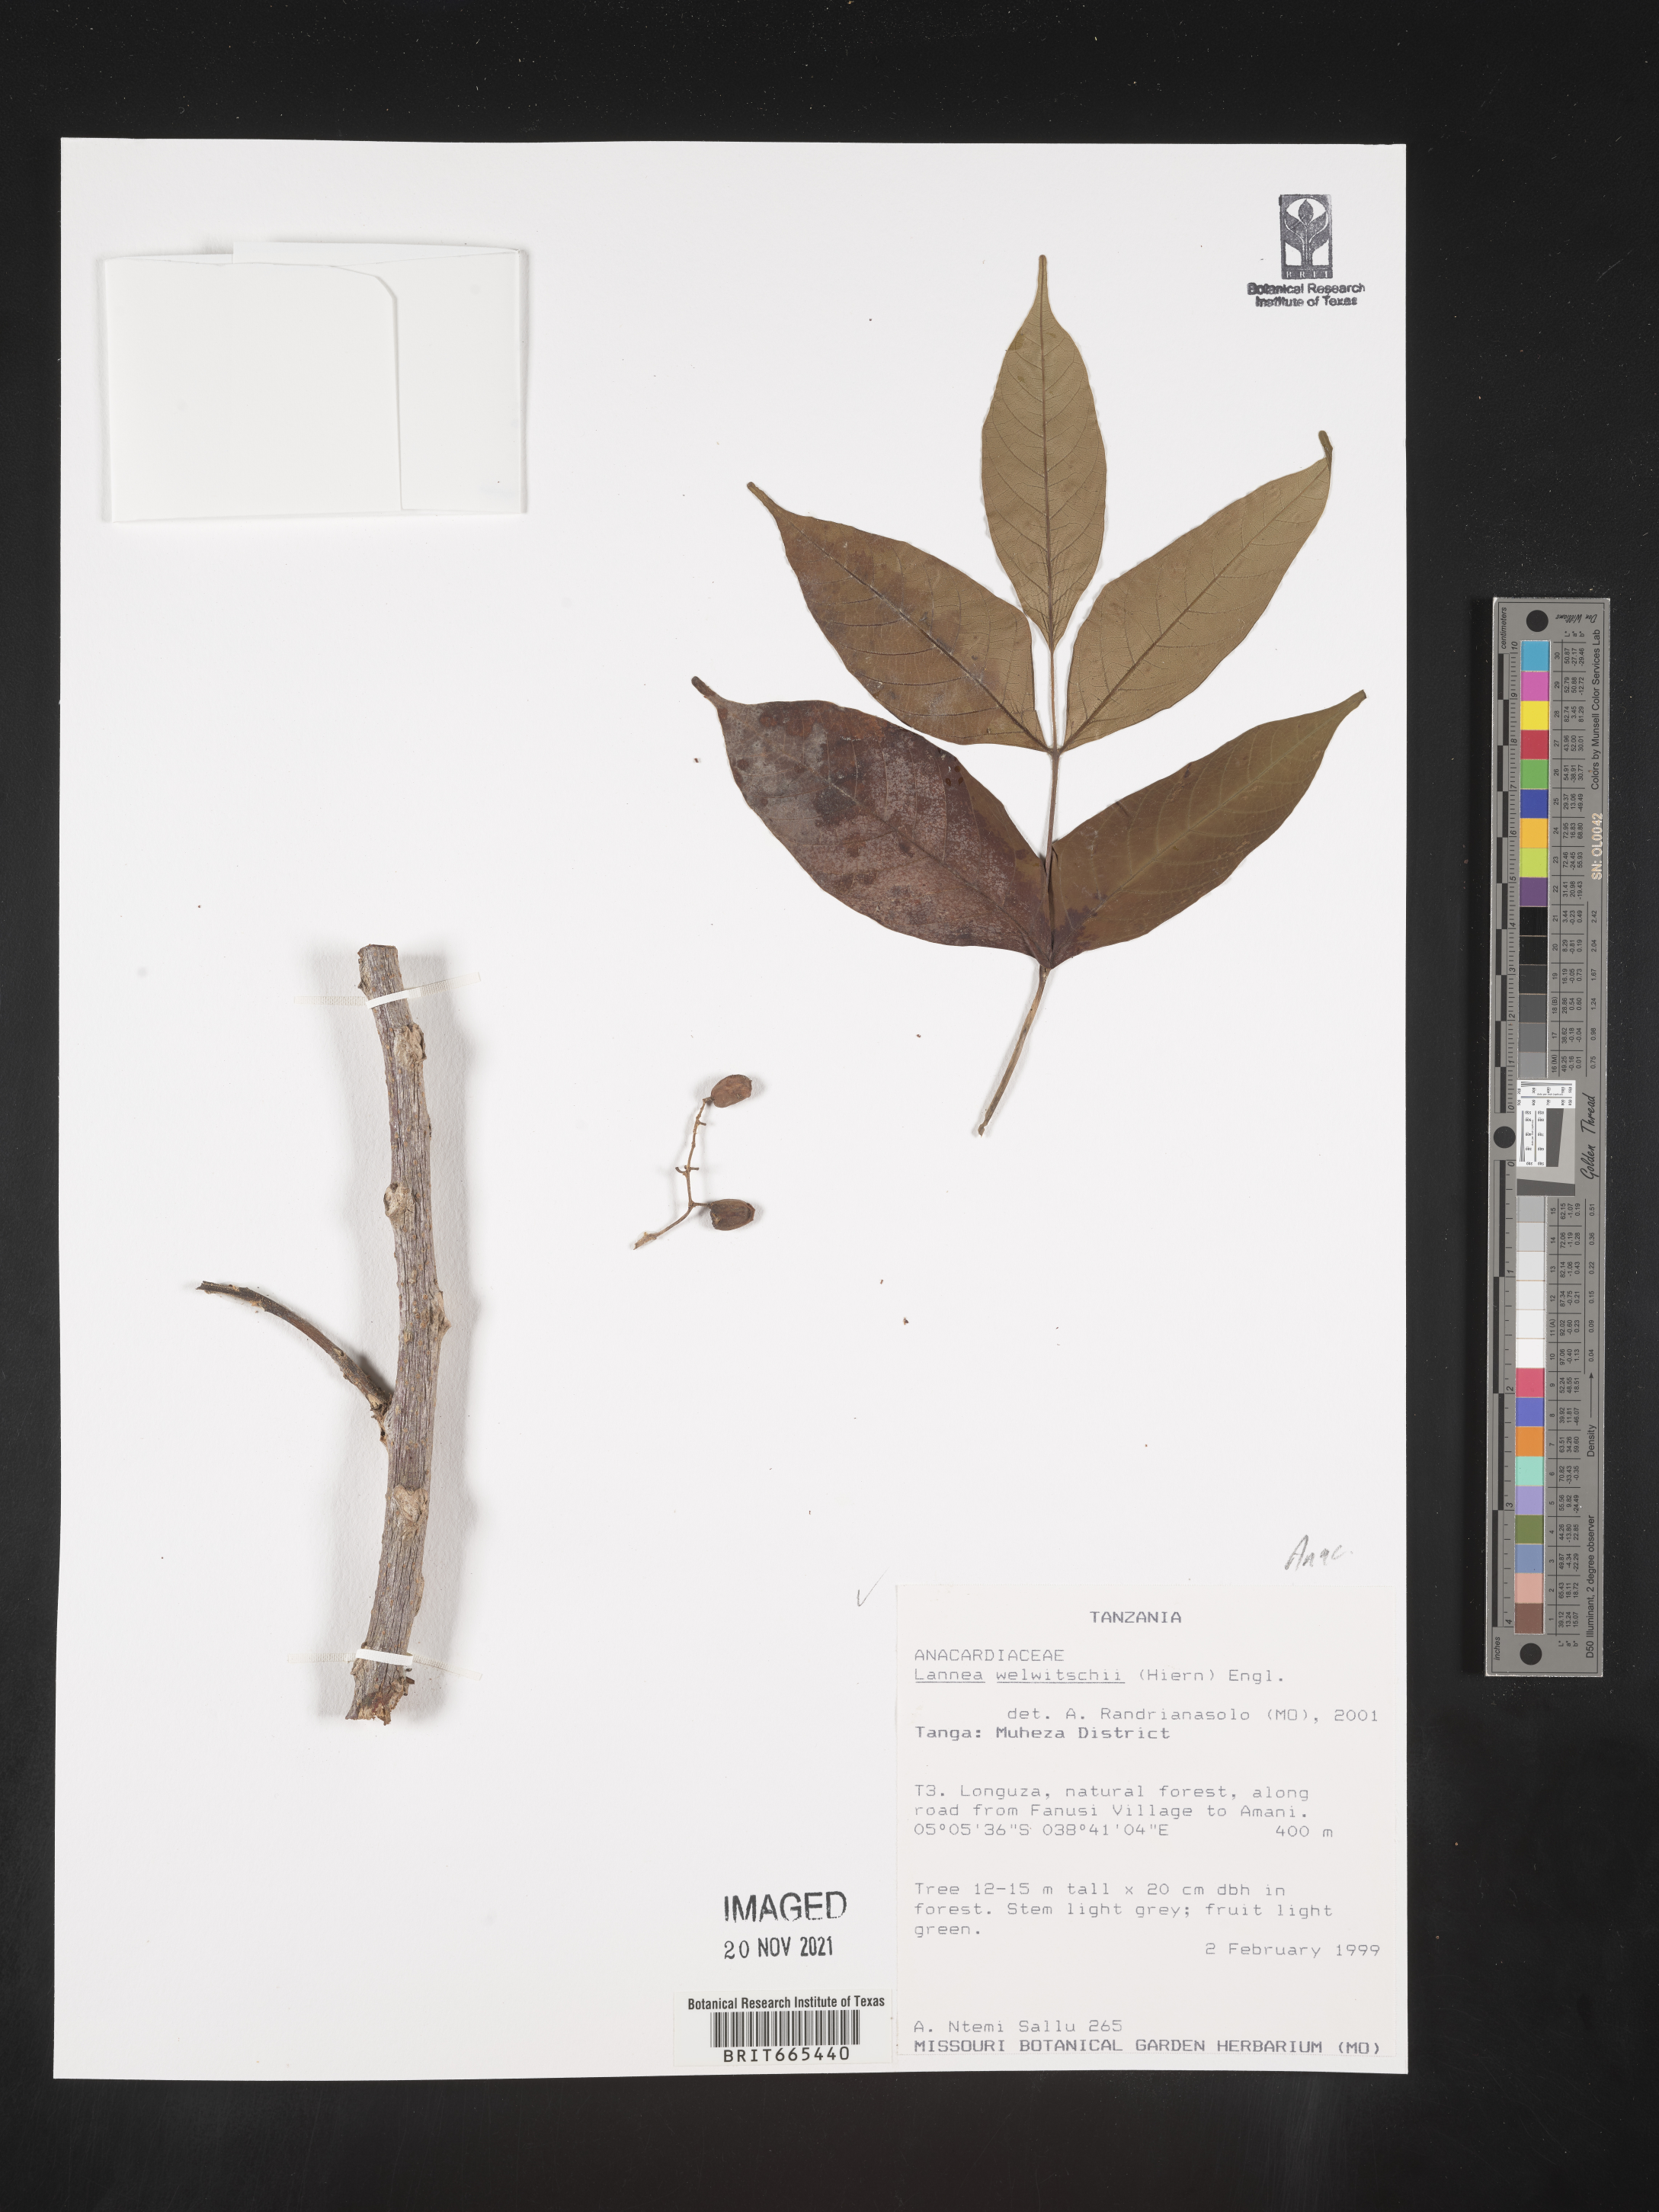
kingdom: Plantae
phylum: Tracheophyta
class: Magnoliopsida
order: Sapindales
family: Anacardiaceae
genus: Lannea
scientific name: Lannea
